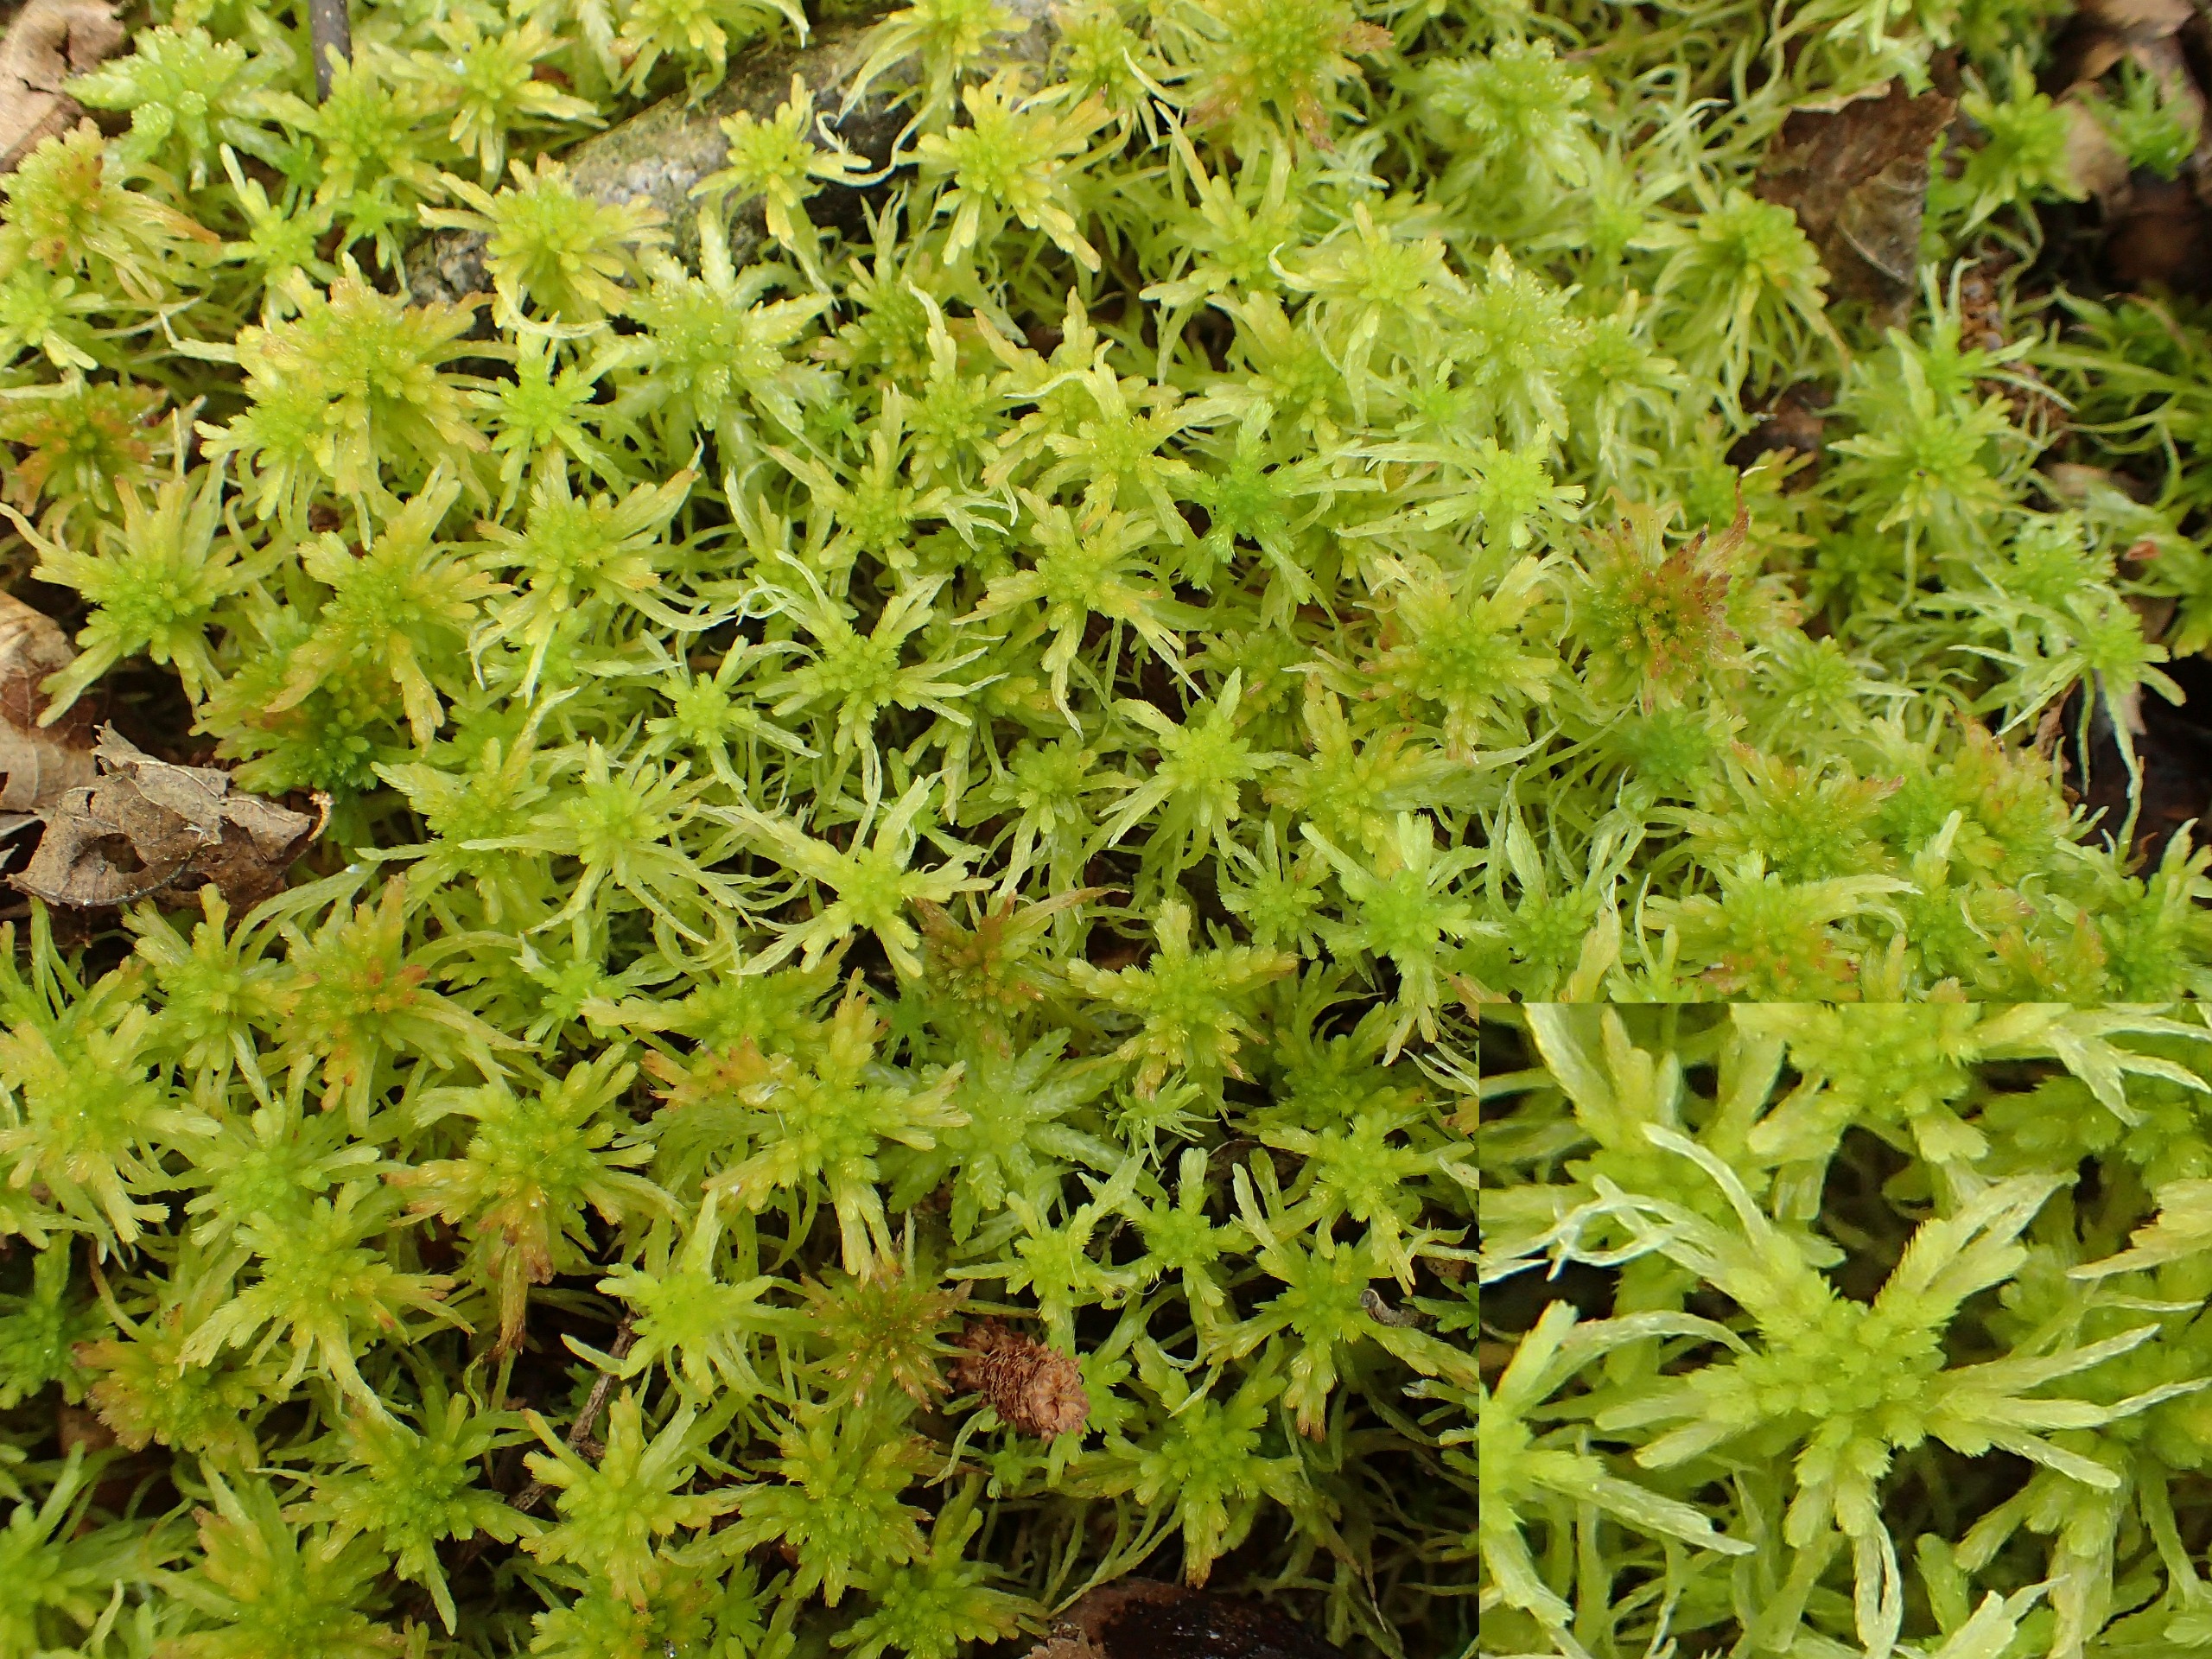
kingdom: Plantae
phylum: Bryophyta
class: Sphagnopsida
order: Sphagnales
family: Sphagnaceae
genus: Sphagnum
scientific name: Sphagnum fallax
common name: Brodspids-tørvemos
